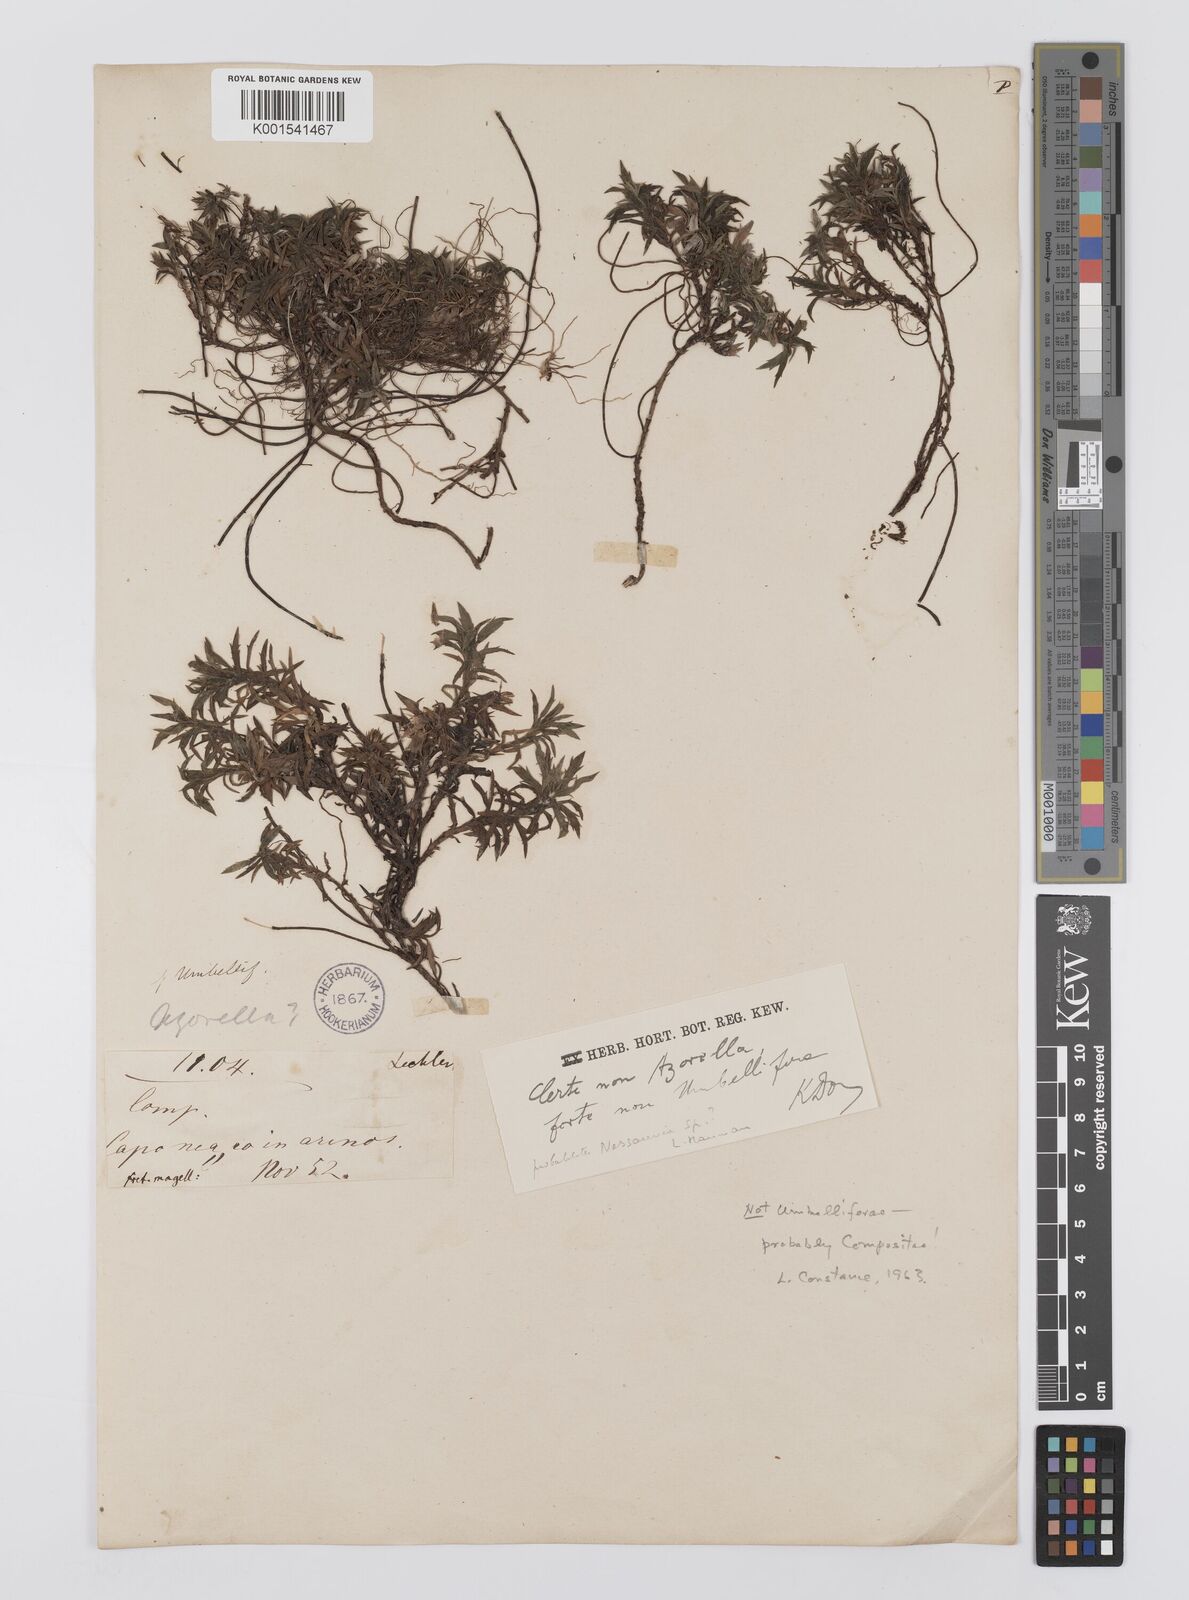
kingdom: Plantae
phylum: Tracheophyta
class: Magnoliopsida
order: Asterales
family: Asteraceae
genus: Nassauvia
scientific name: Nassauvia
